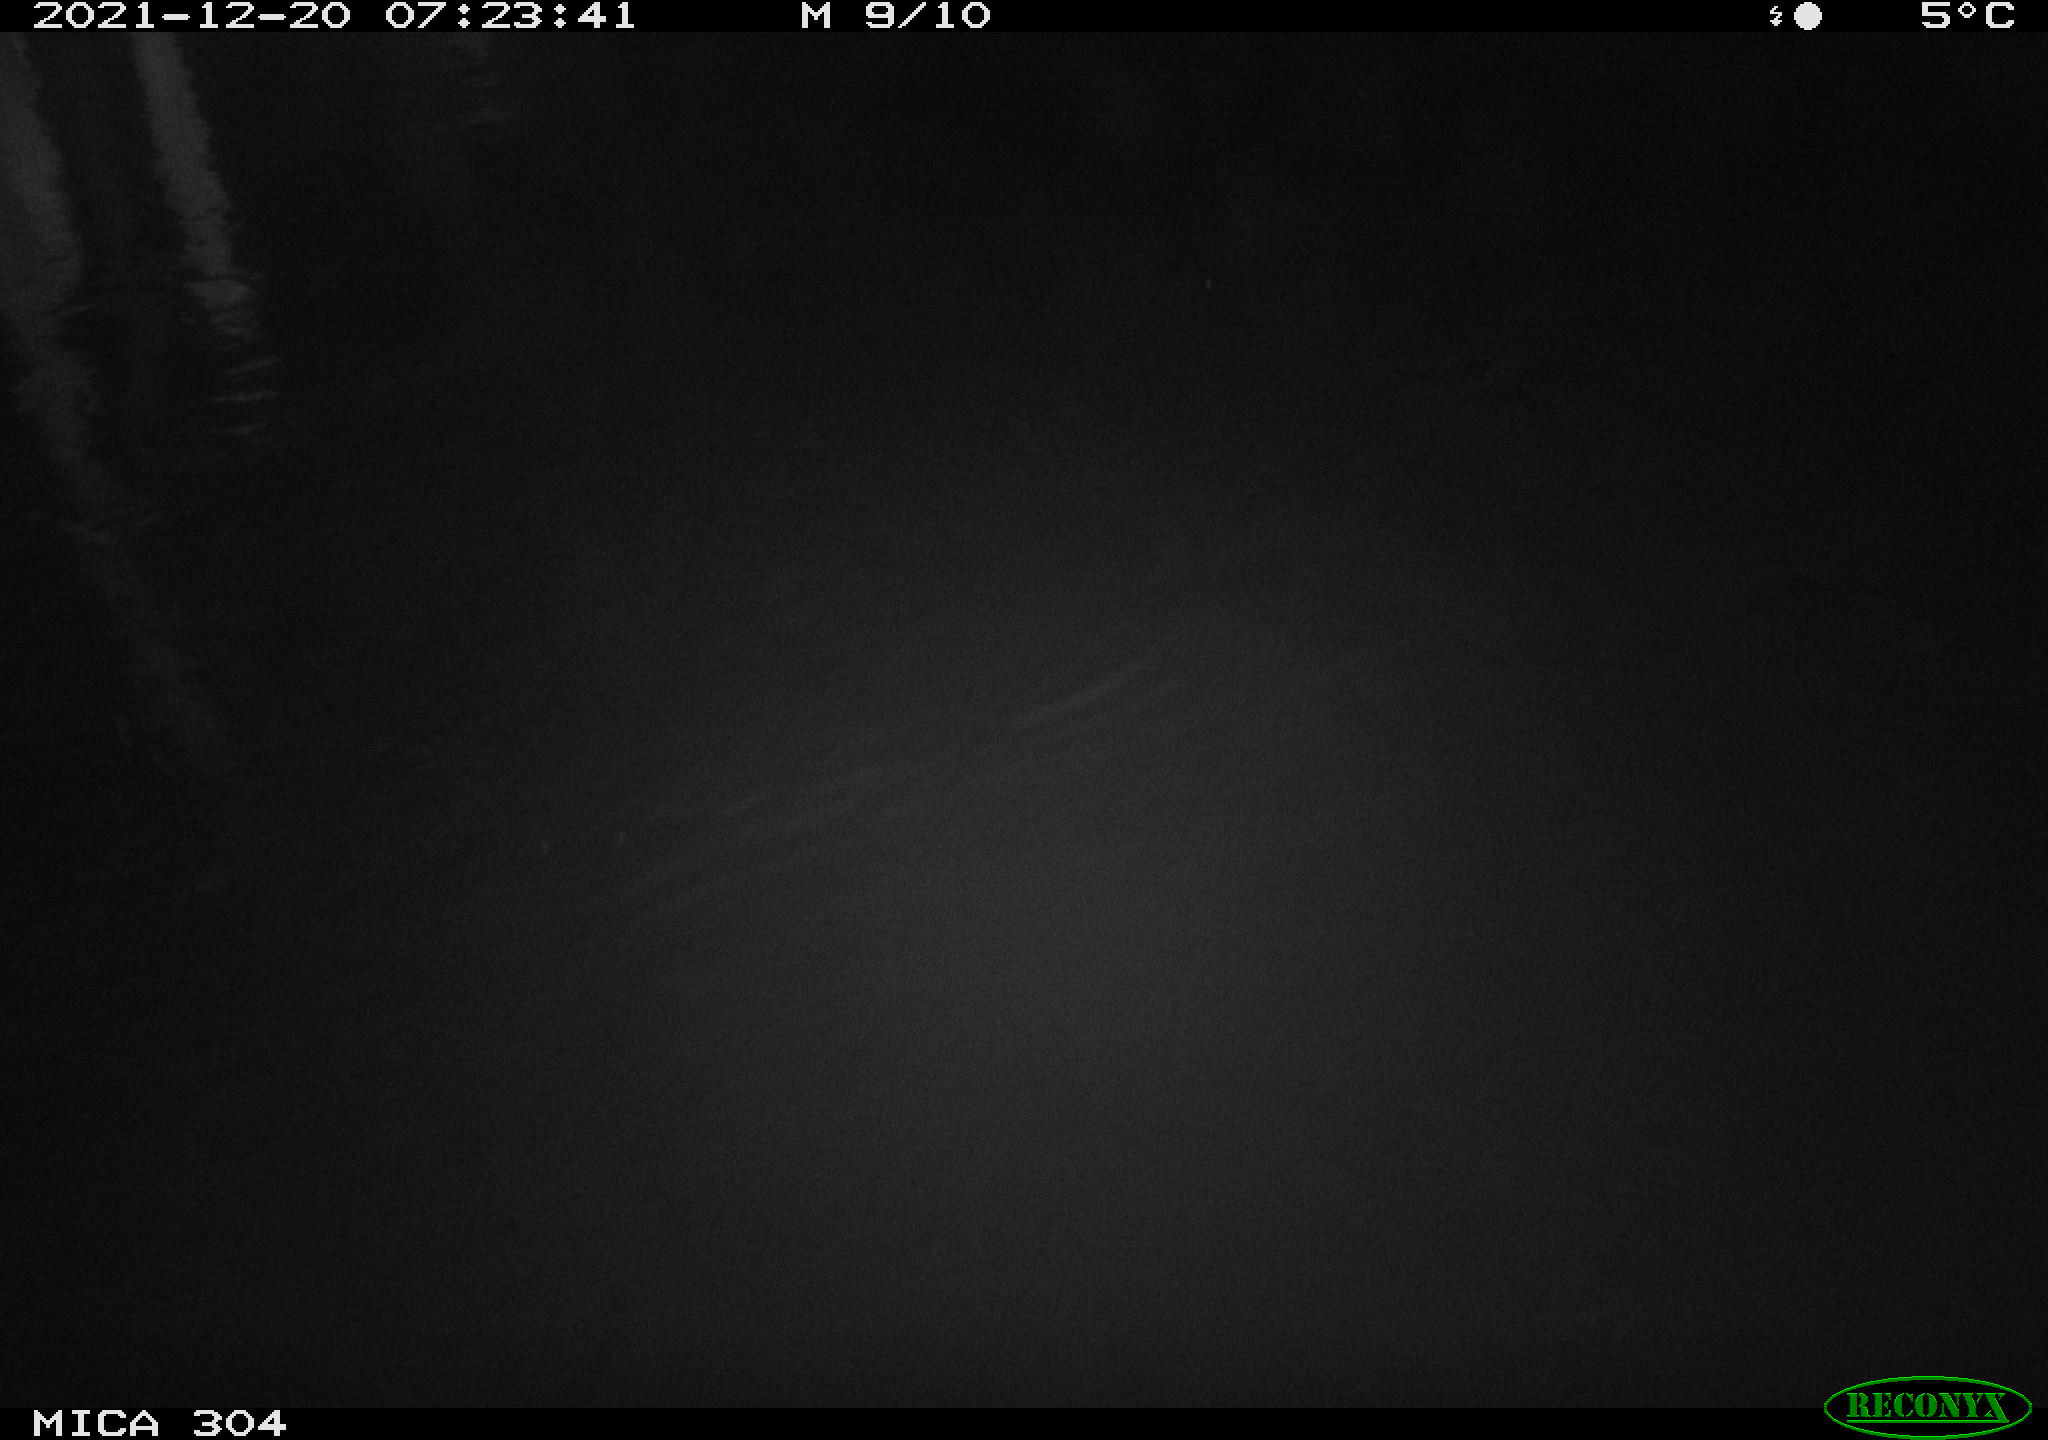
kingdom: Animalia
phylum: Chordata
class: Mammalia
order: Rodentia
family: Muridae
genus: Rattus
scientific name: Rattus norvegicus
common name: Brown rat
